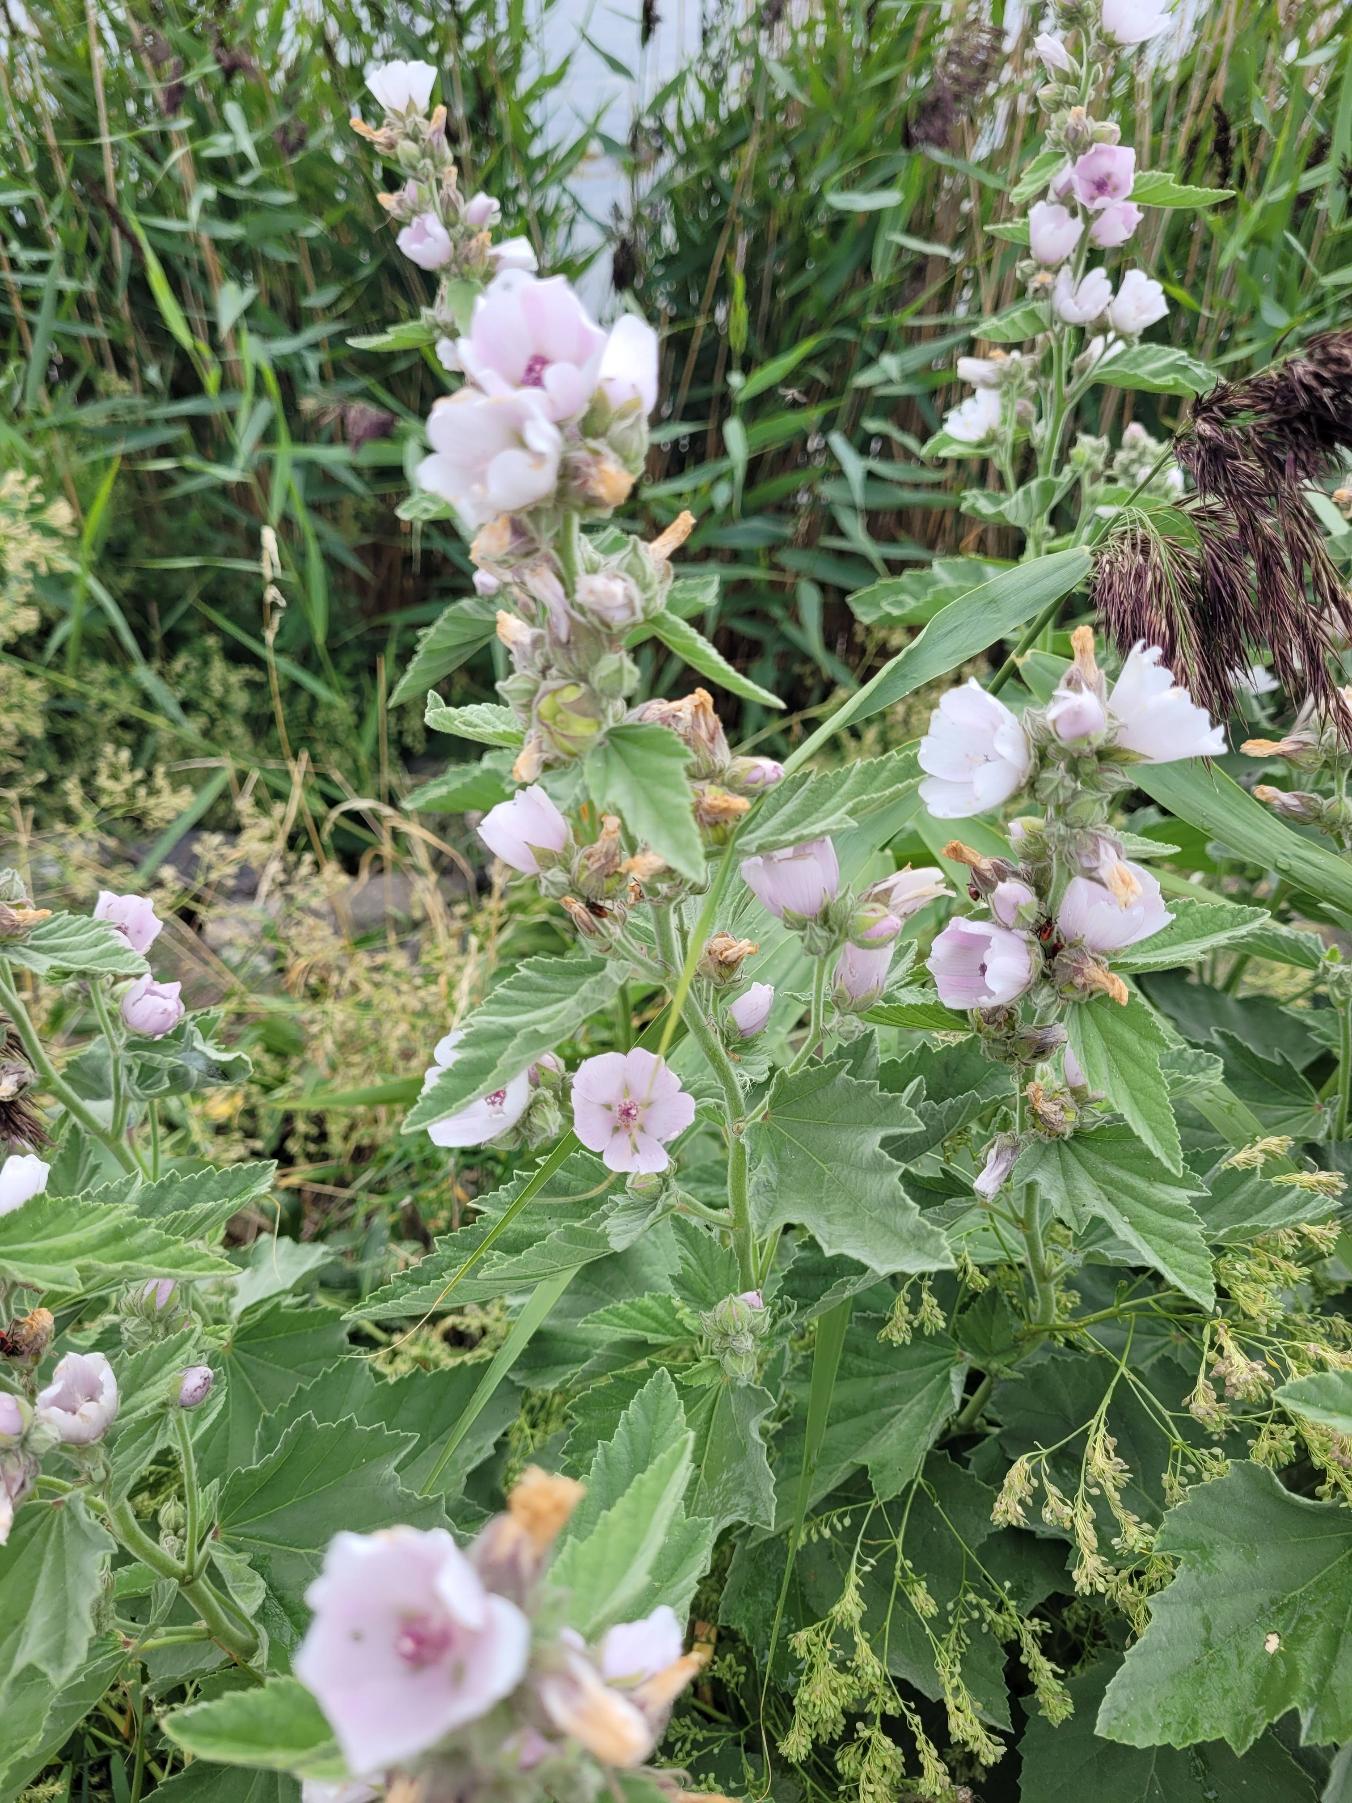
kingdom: Plantae
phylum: Tracheophyta
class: Magnoliopsida
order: Malvales
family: Malvaceae
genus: Althaea
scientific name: Althaea officinalis
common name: Lægestokrose
